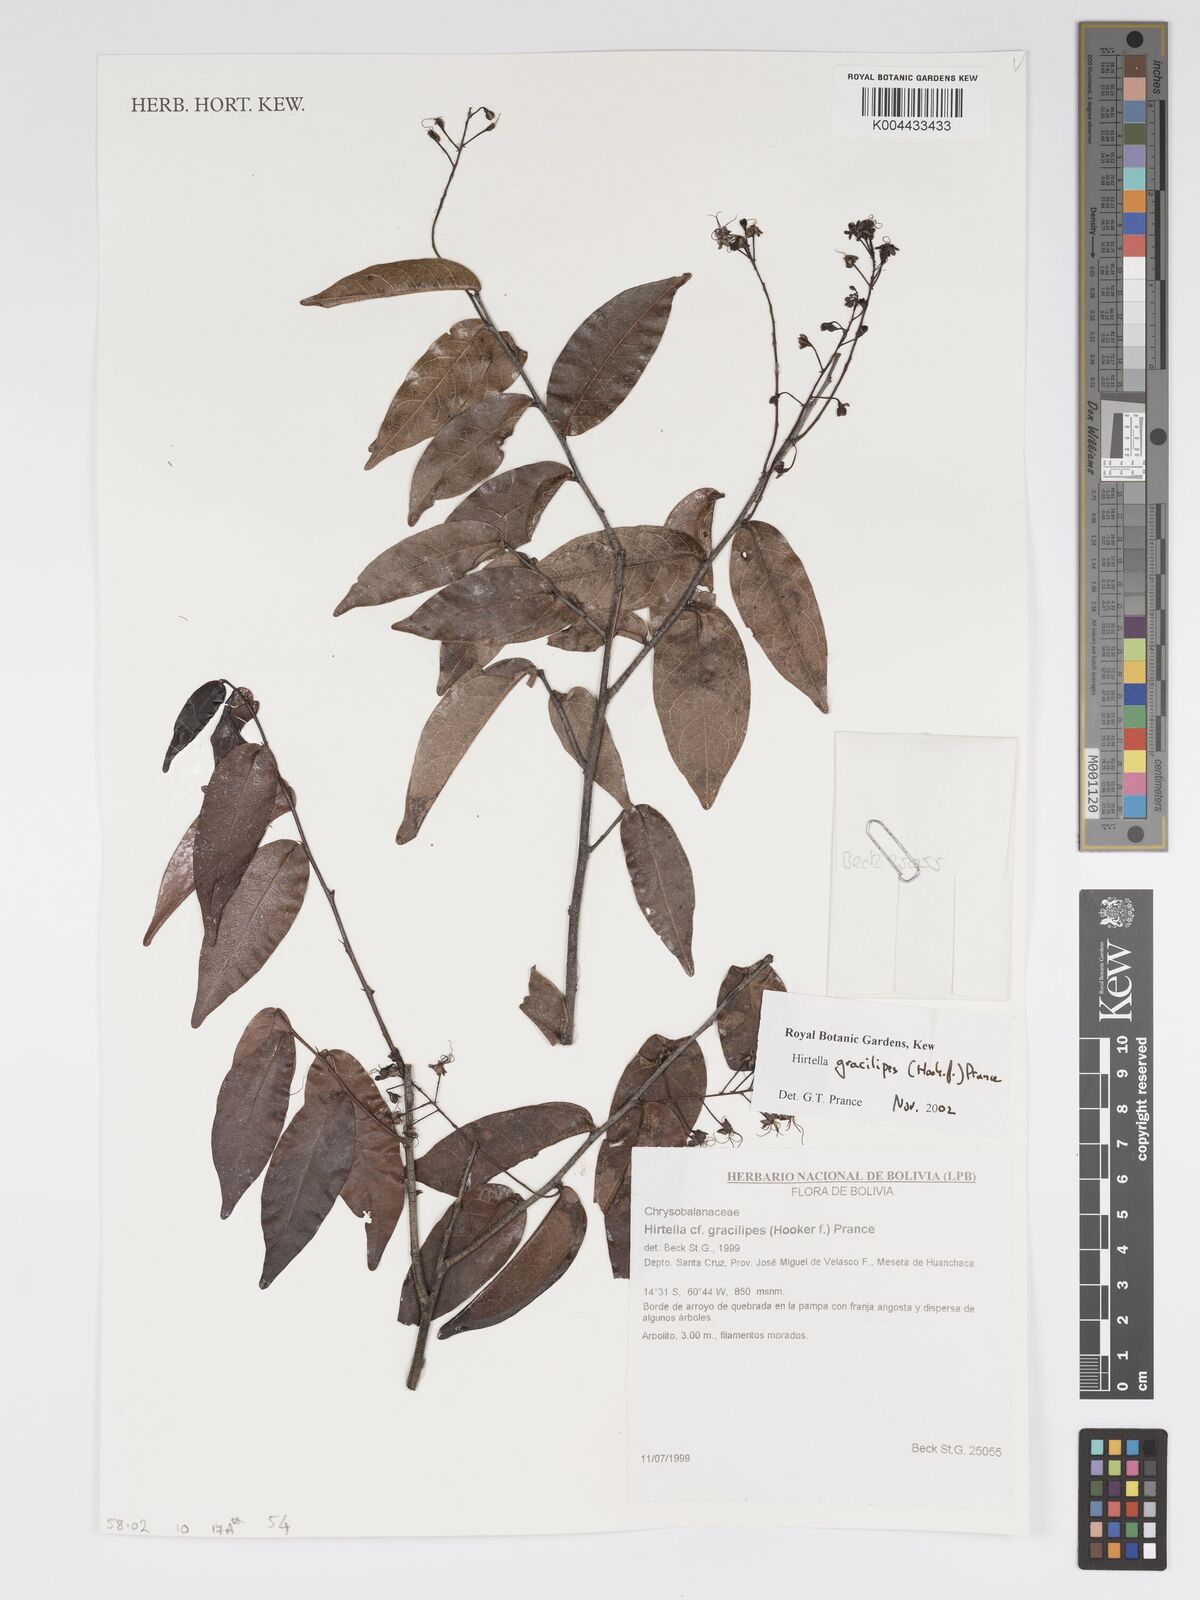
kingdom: Plantae
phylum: Tracheophyta
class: Magnoliopsida
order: Malpighiales
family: Chrysobalanaceae
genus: Hirtella
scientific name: Hirtella gracilipes
